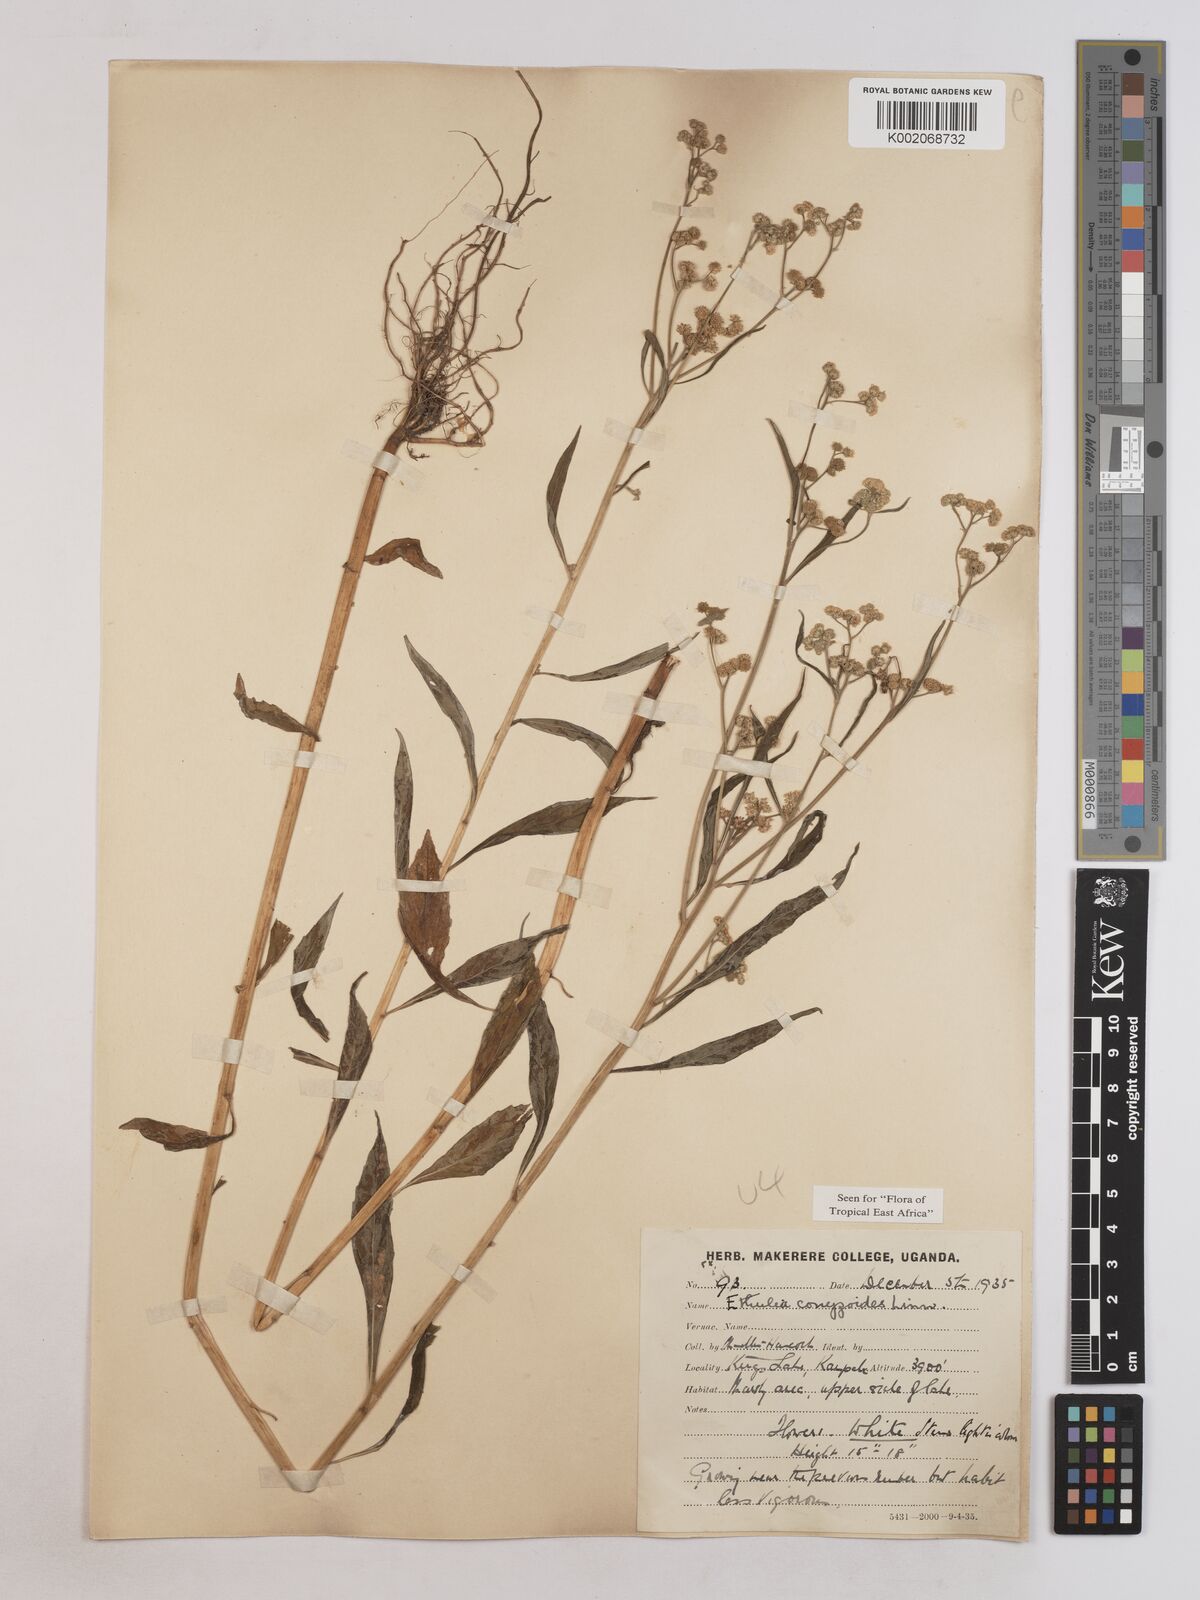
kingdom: Plantae
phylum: Tracheophyta
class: Magnoliopsida
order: Asterales
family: Asteraceae
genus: Ethulia
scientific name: Ethulia conyzoides
